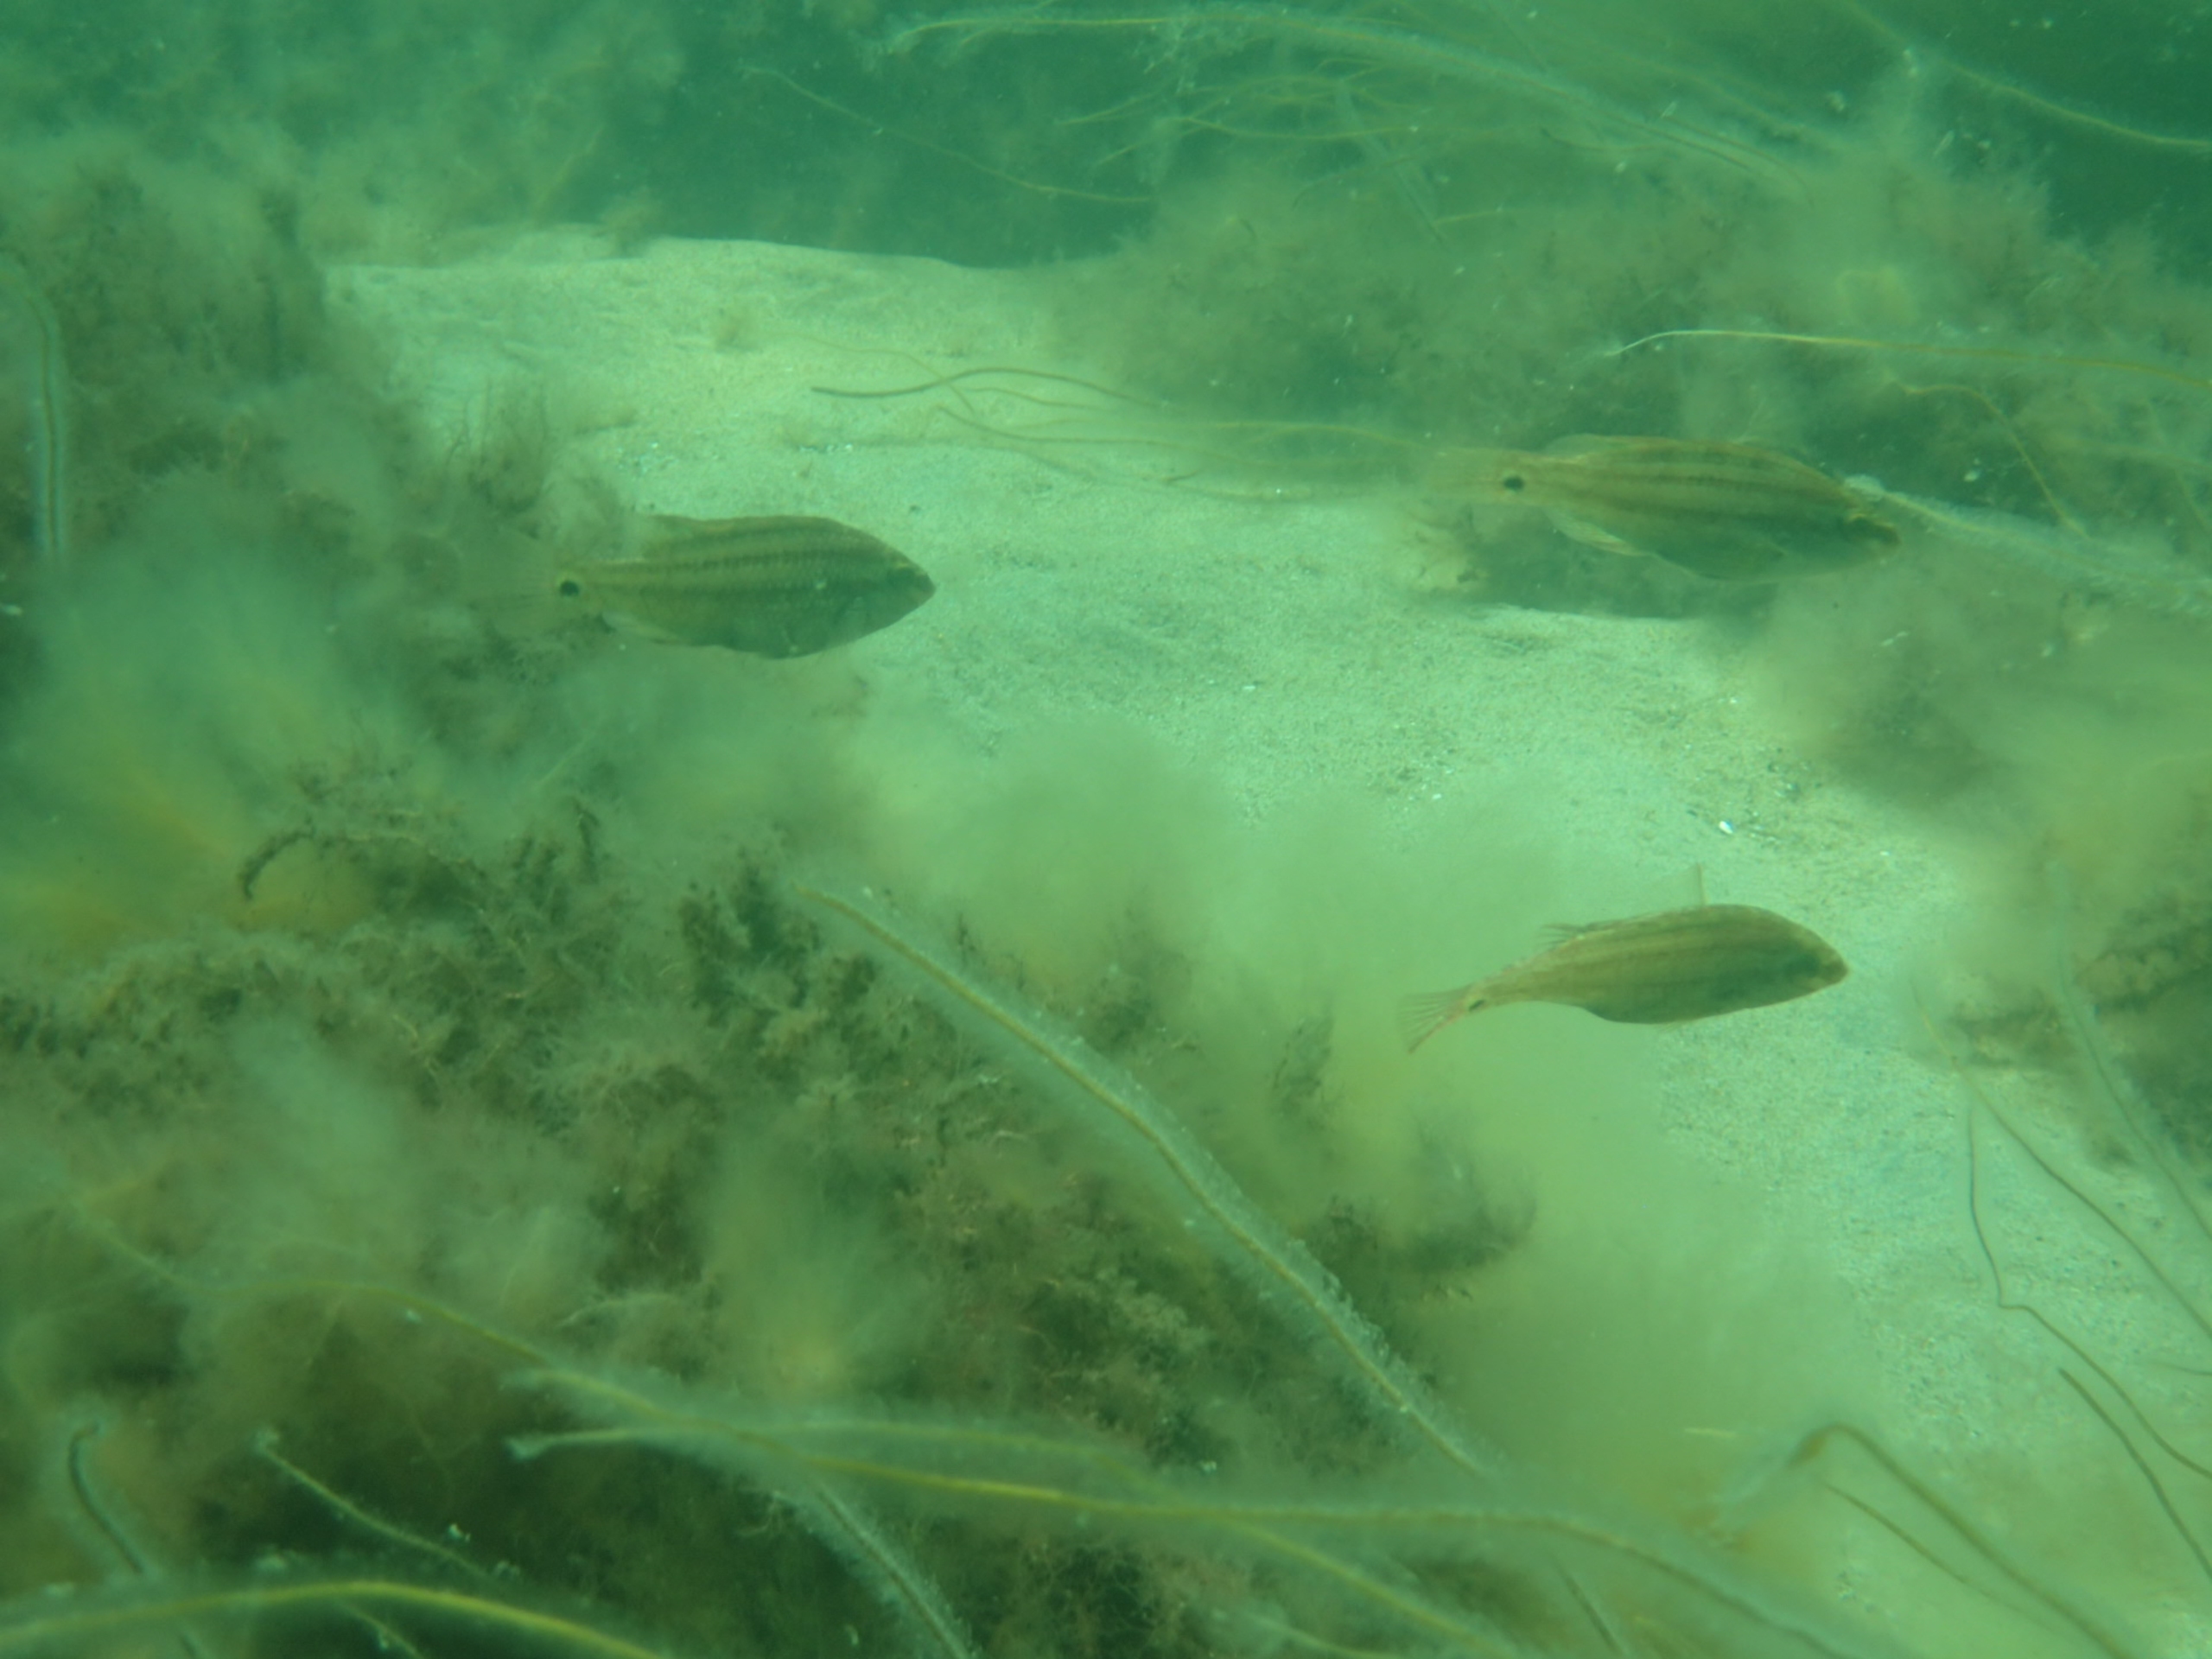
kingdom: Animalia
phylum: Chordata
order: Perciformes
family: Labridae
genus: Symphodus
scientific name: Symphodus melops
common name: Savgylte
